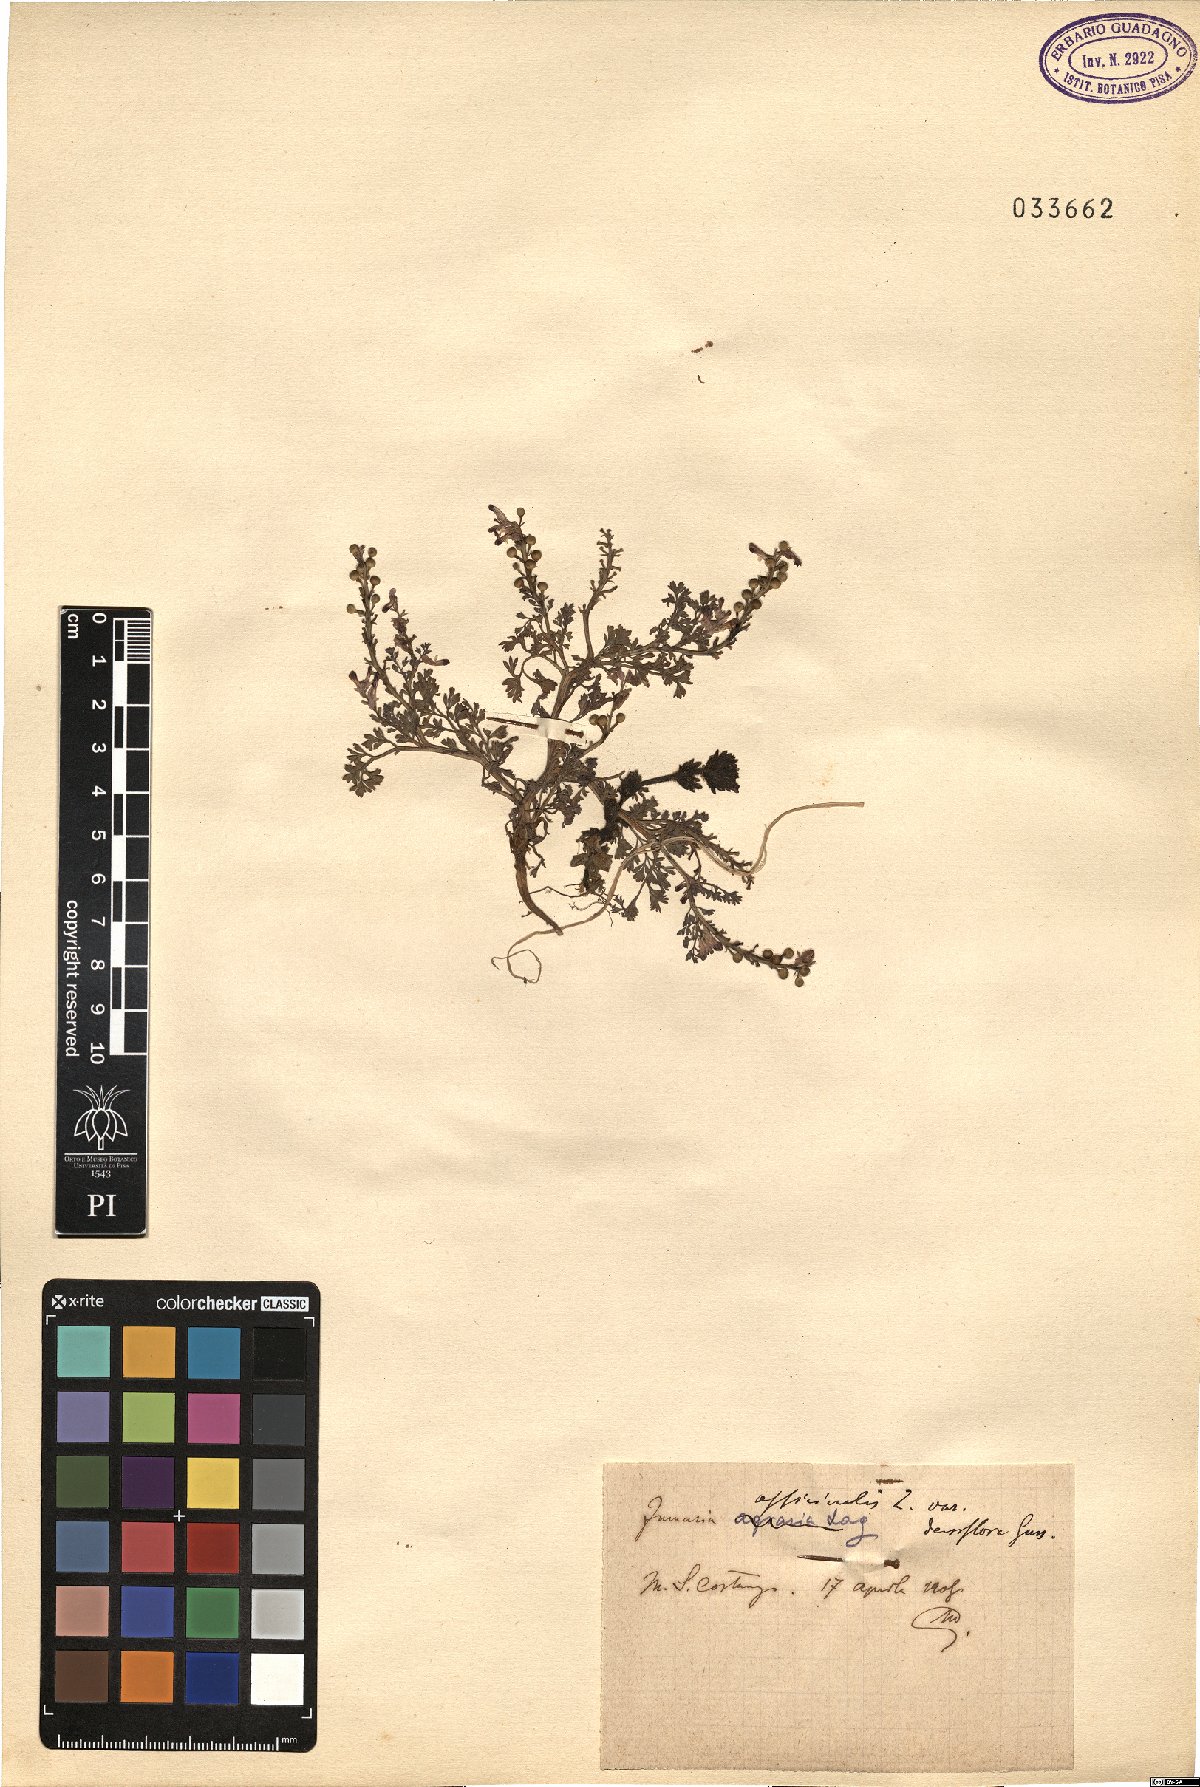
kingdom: Plantae
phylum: Tracheophyta
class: Magnoliopsida
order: Ranunculales
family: Papaveraceae
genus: Fumaria
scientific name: Fumaria densiflora
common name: Dense-flowered fumitory
